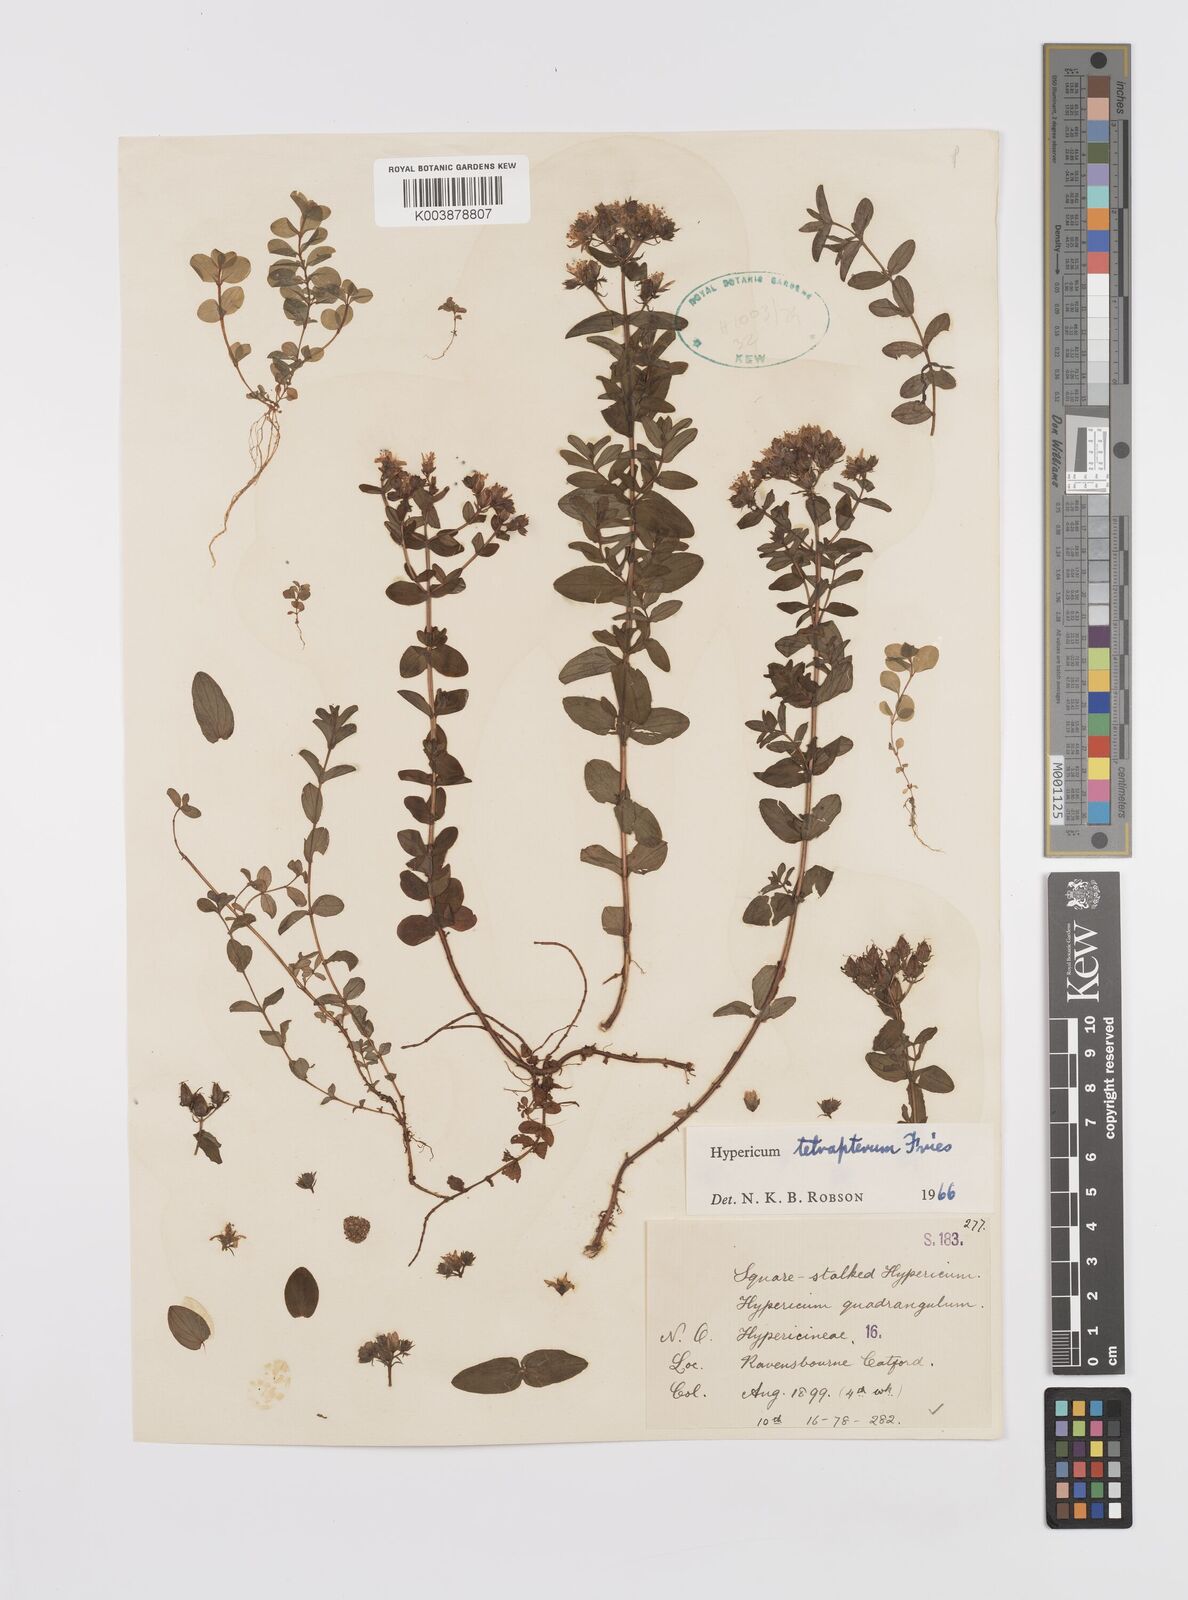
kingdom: Plantae
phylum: Tracheophyta
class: Magnoliopsida
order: Malpighiales
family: Hypericaceae
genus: Hypericum
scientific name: Hypericum tetrapterum
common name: Square-stalked st. john's-wort
